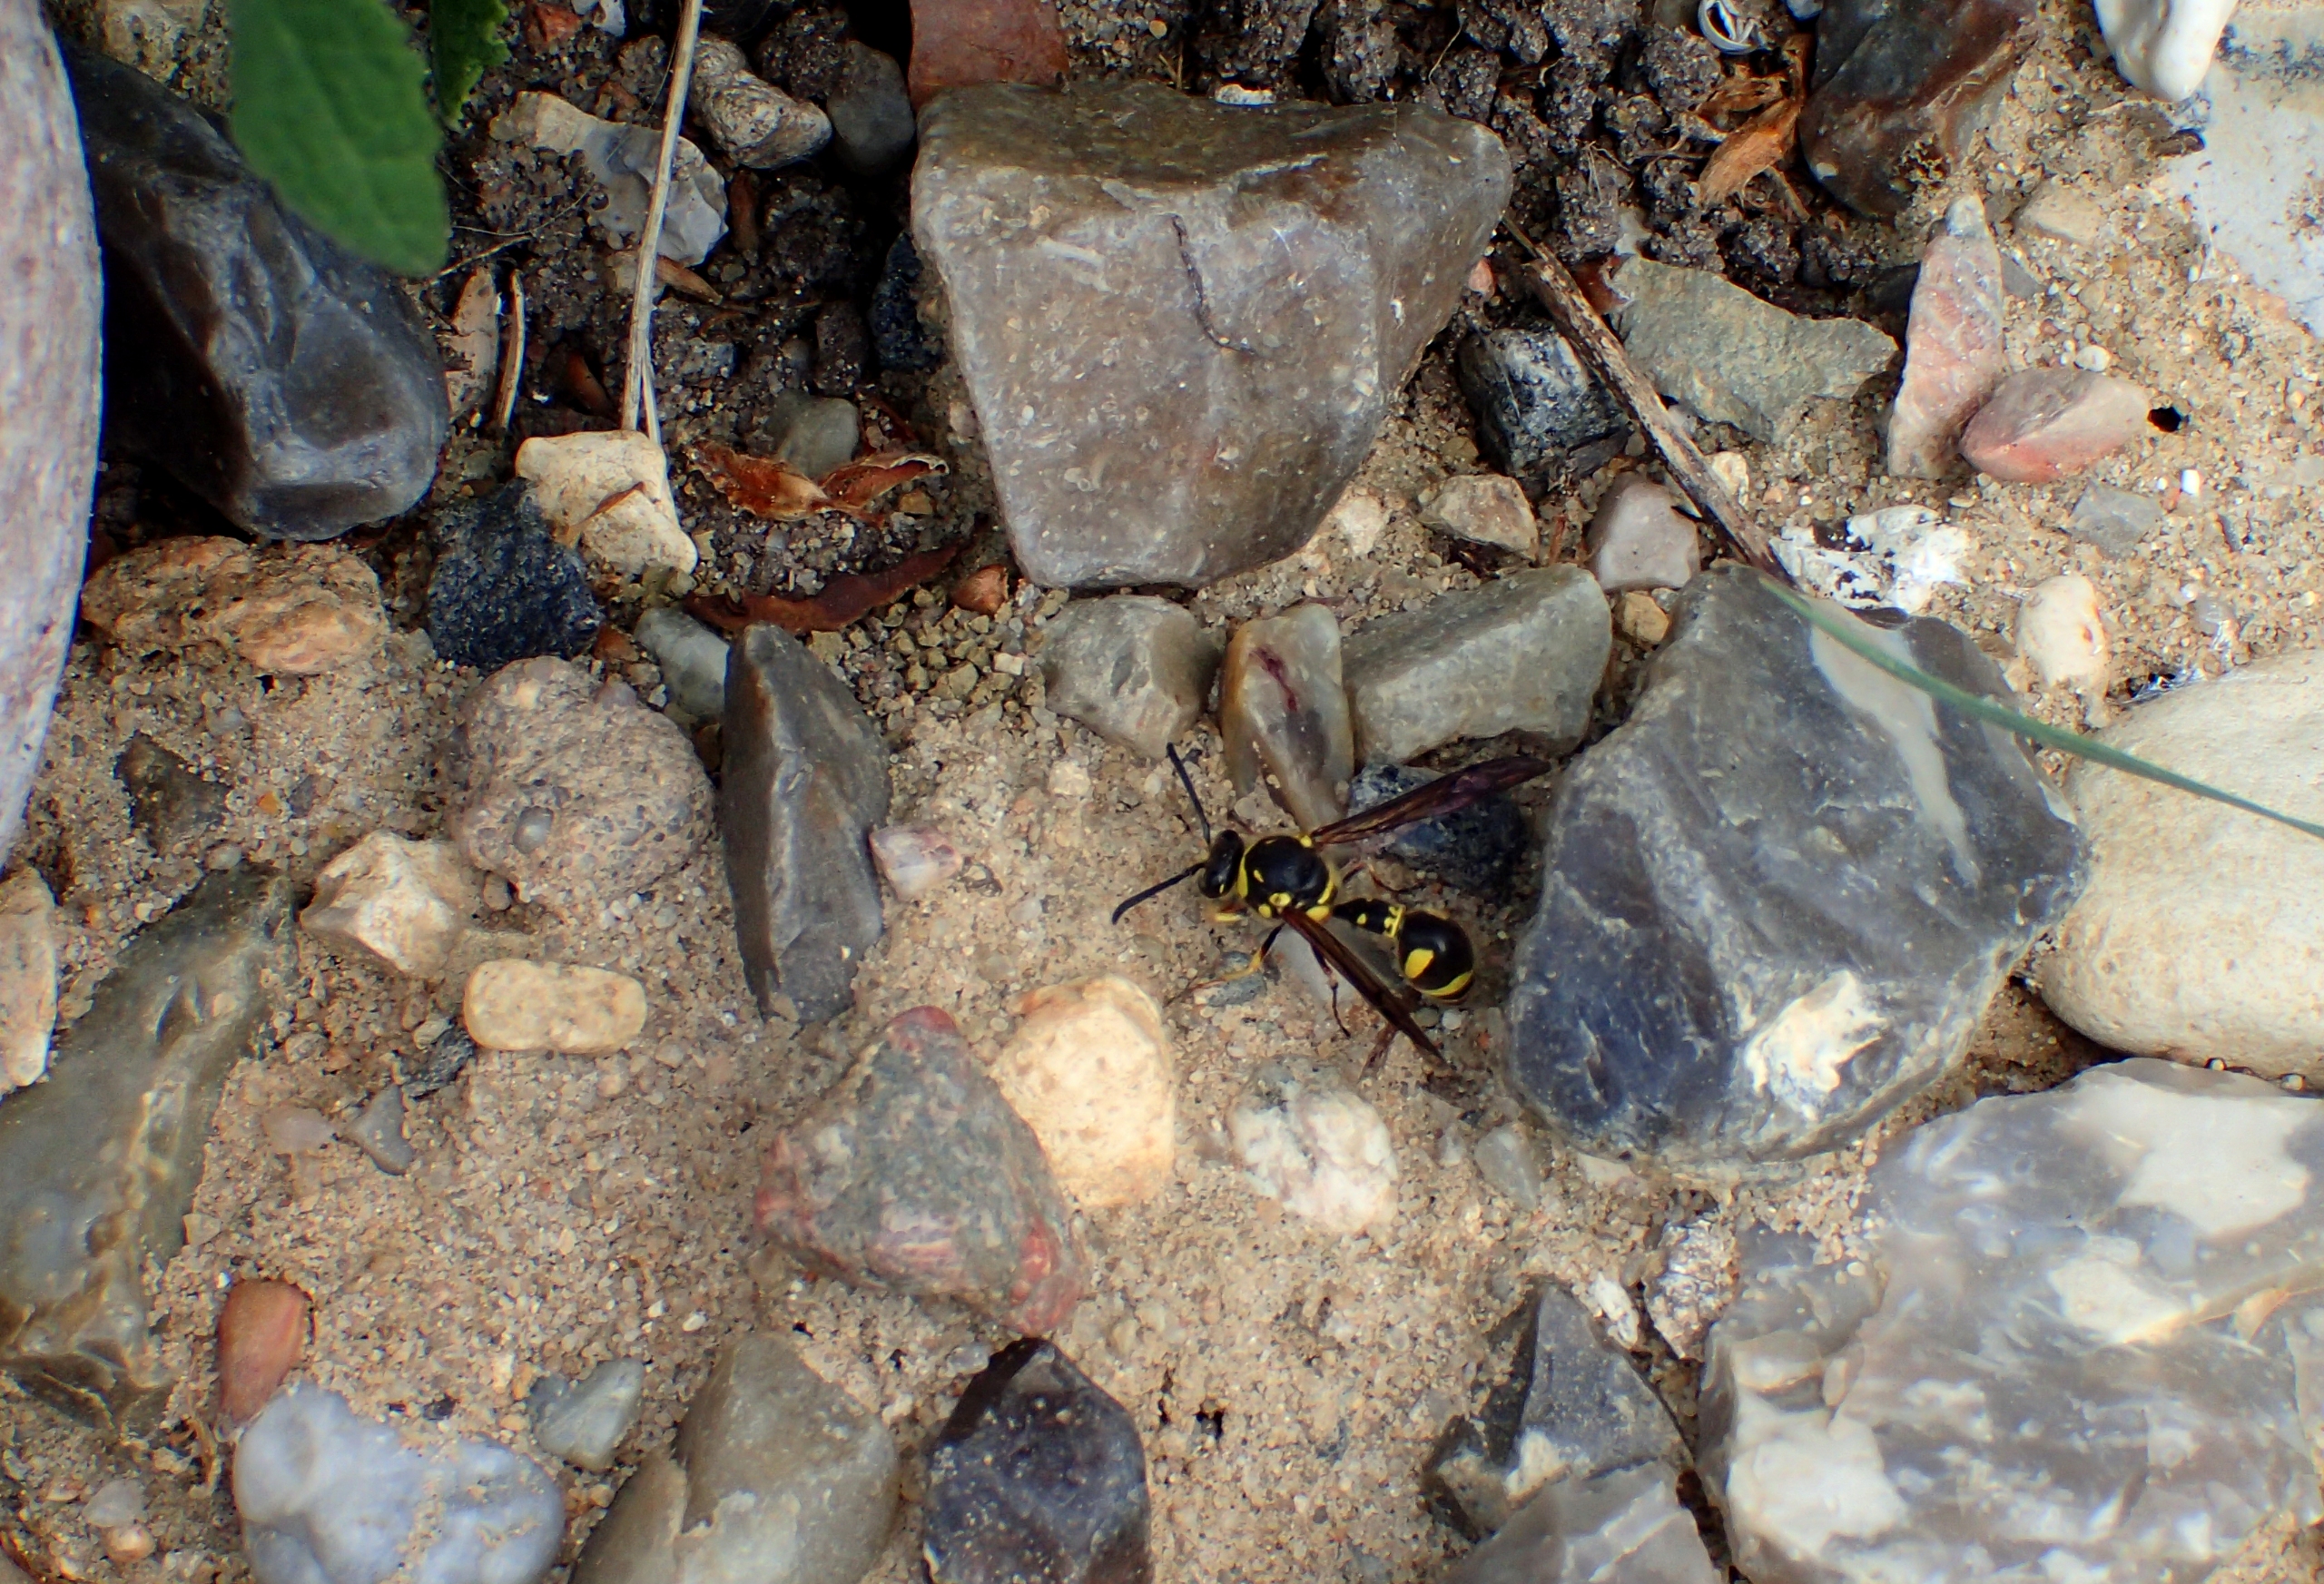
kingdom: Animalia
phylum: Arthropoda
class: Insecta
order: Hymenoptera
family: Vespidae
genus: Eumenes
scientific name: Eumenes pedunculatus
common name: Pottemagerhveps
